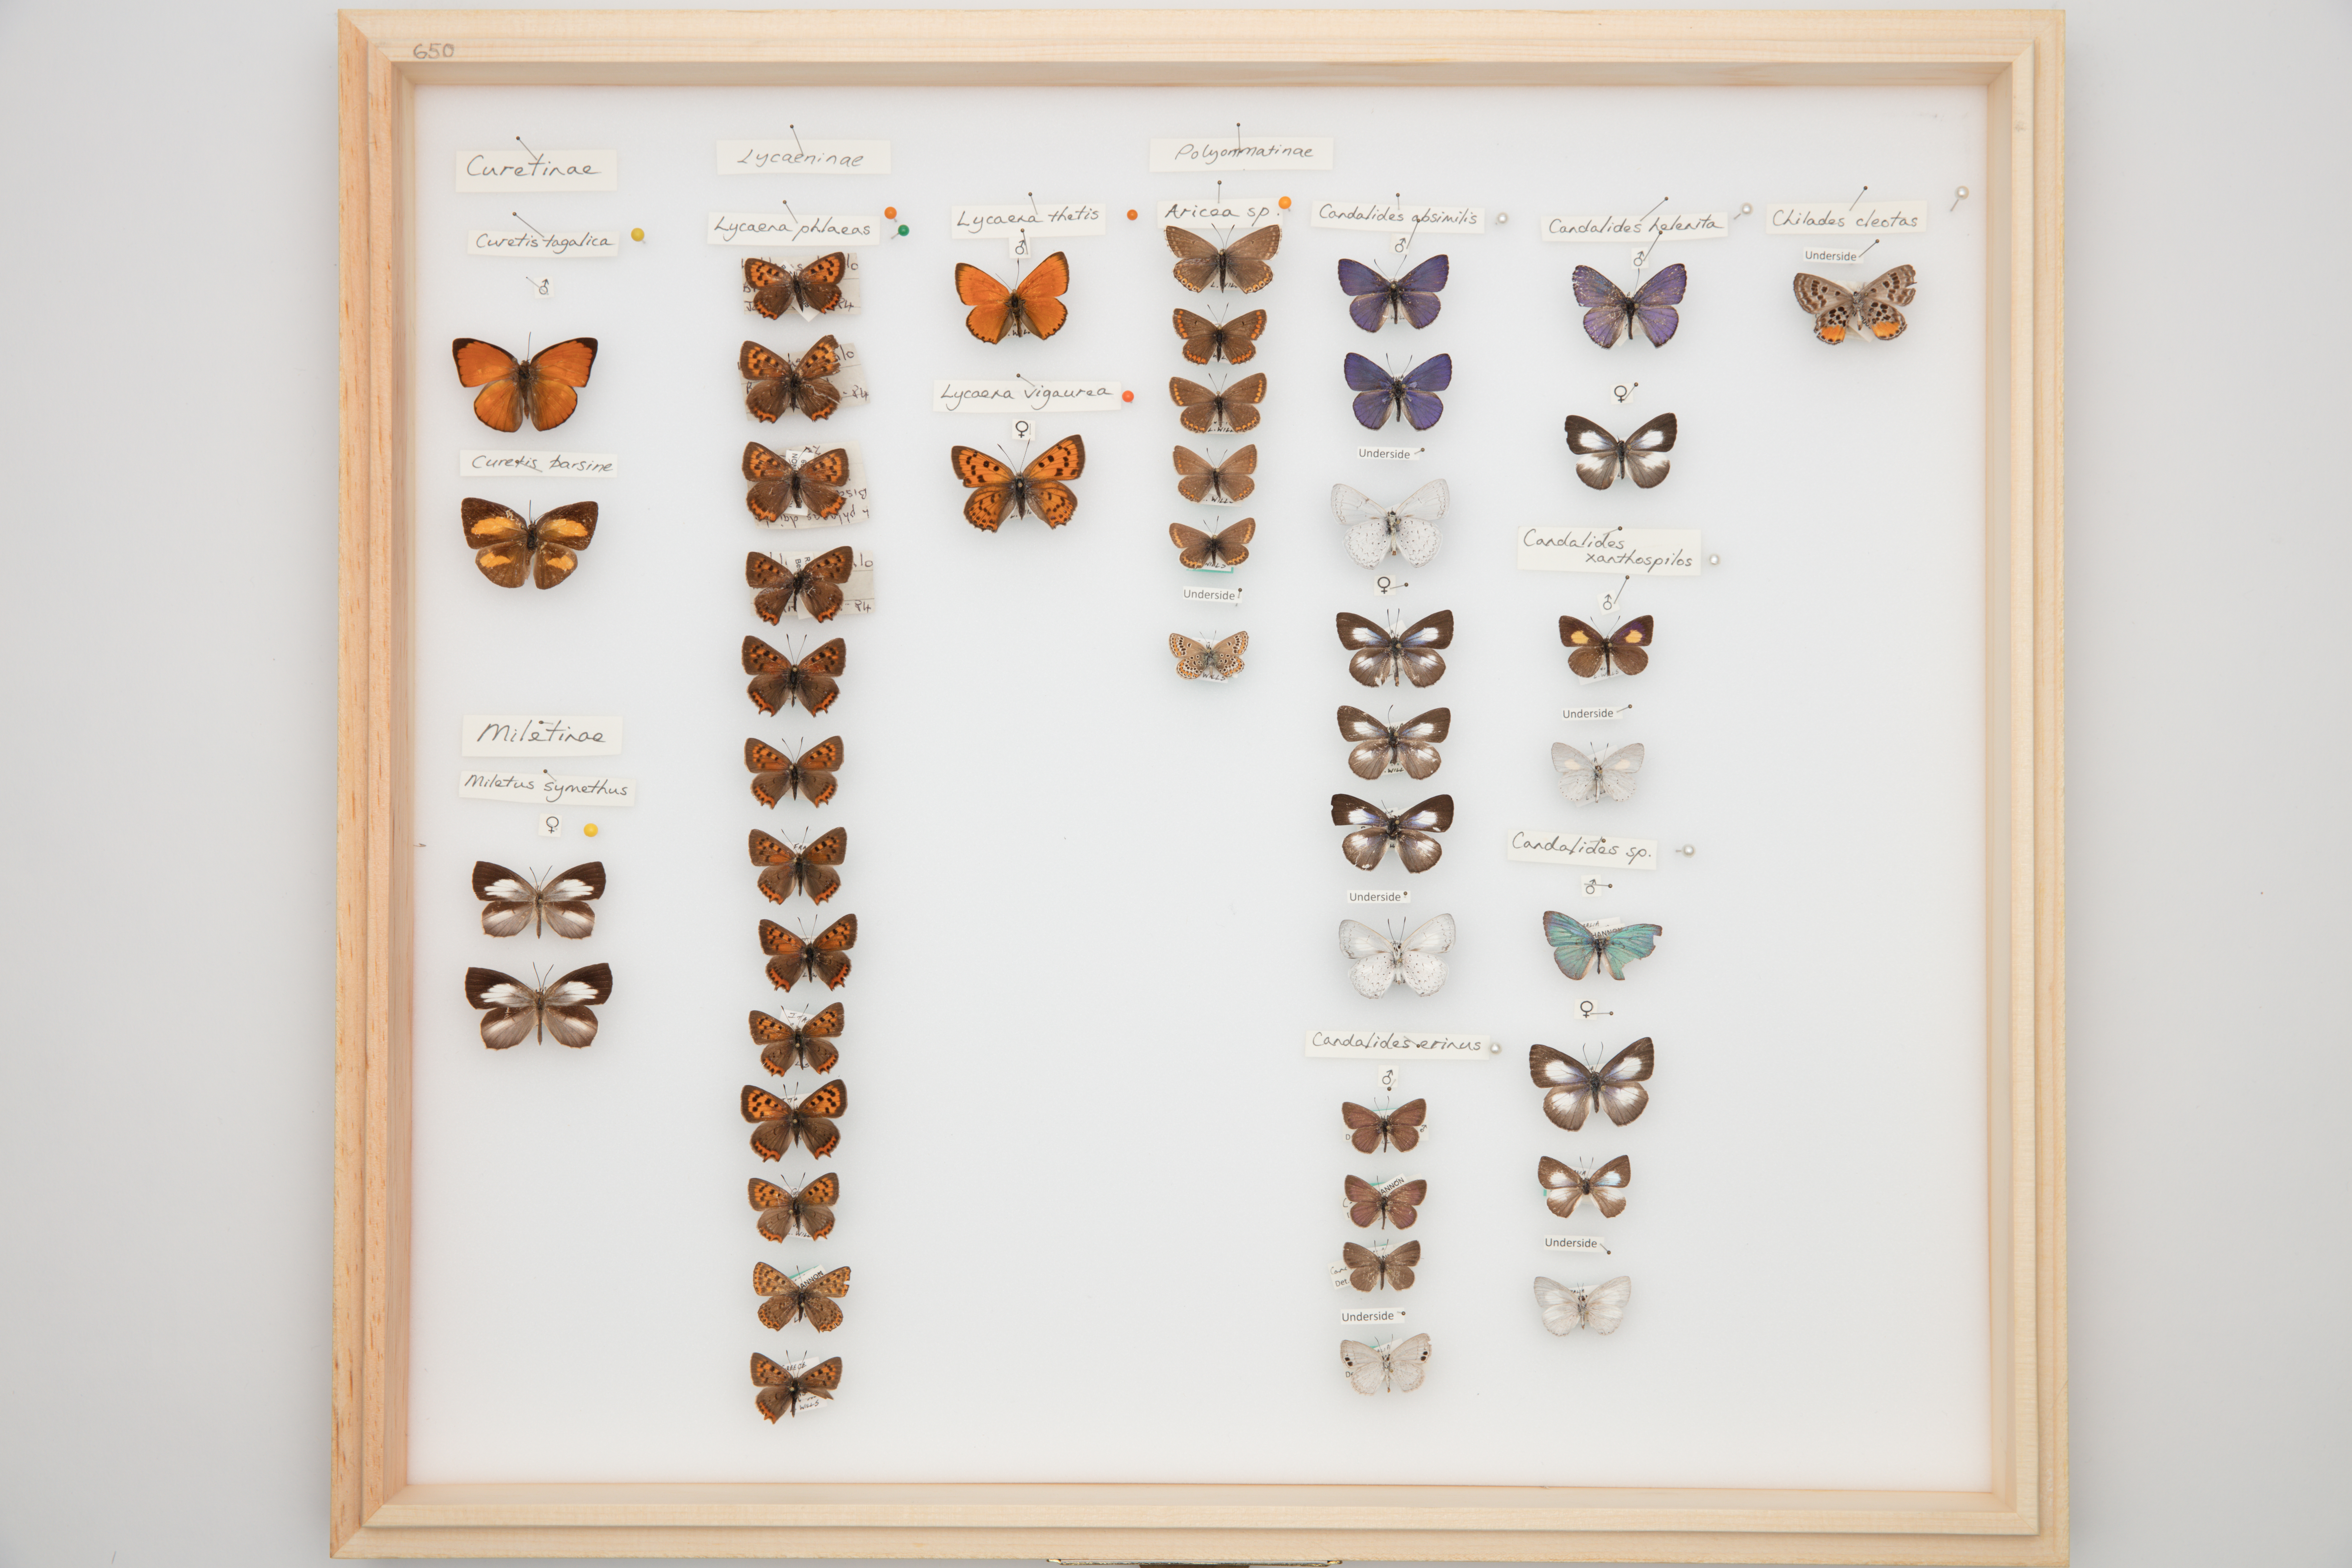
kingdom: Animalia
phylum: Arthropoda
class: Insecta
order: Lepidoptera
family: Lycaenidae
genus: Lycaena
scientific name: Lycaena phlaeas
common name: Small copper
